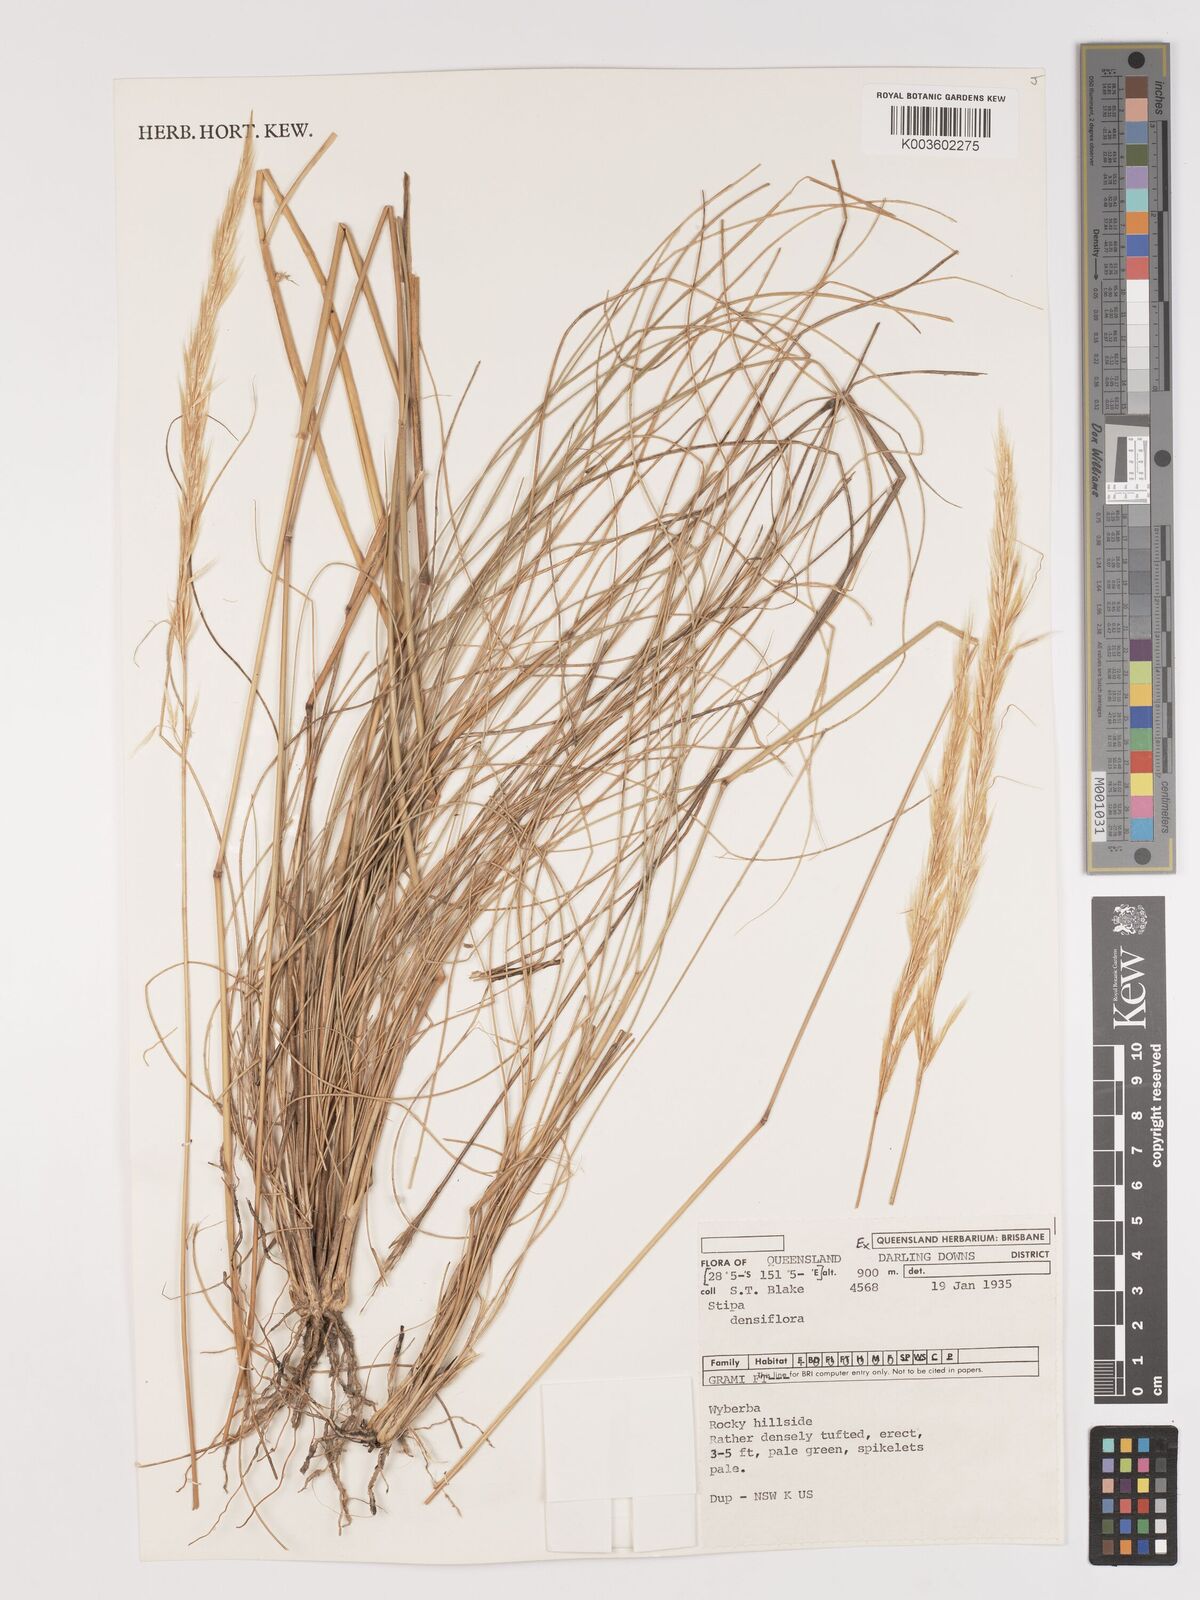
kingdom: Plantae
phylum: Tracheophyta
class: Liliopsida
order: Poales
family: Poaceae
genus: Stipa
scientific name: Stipa
